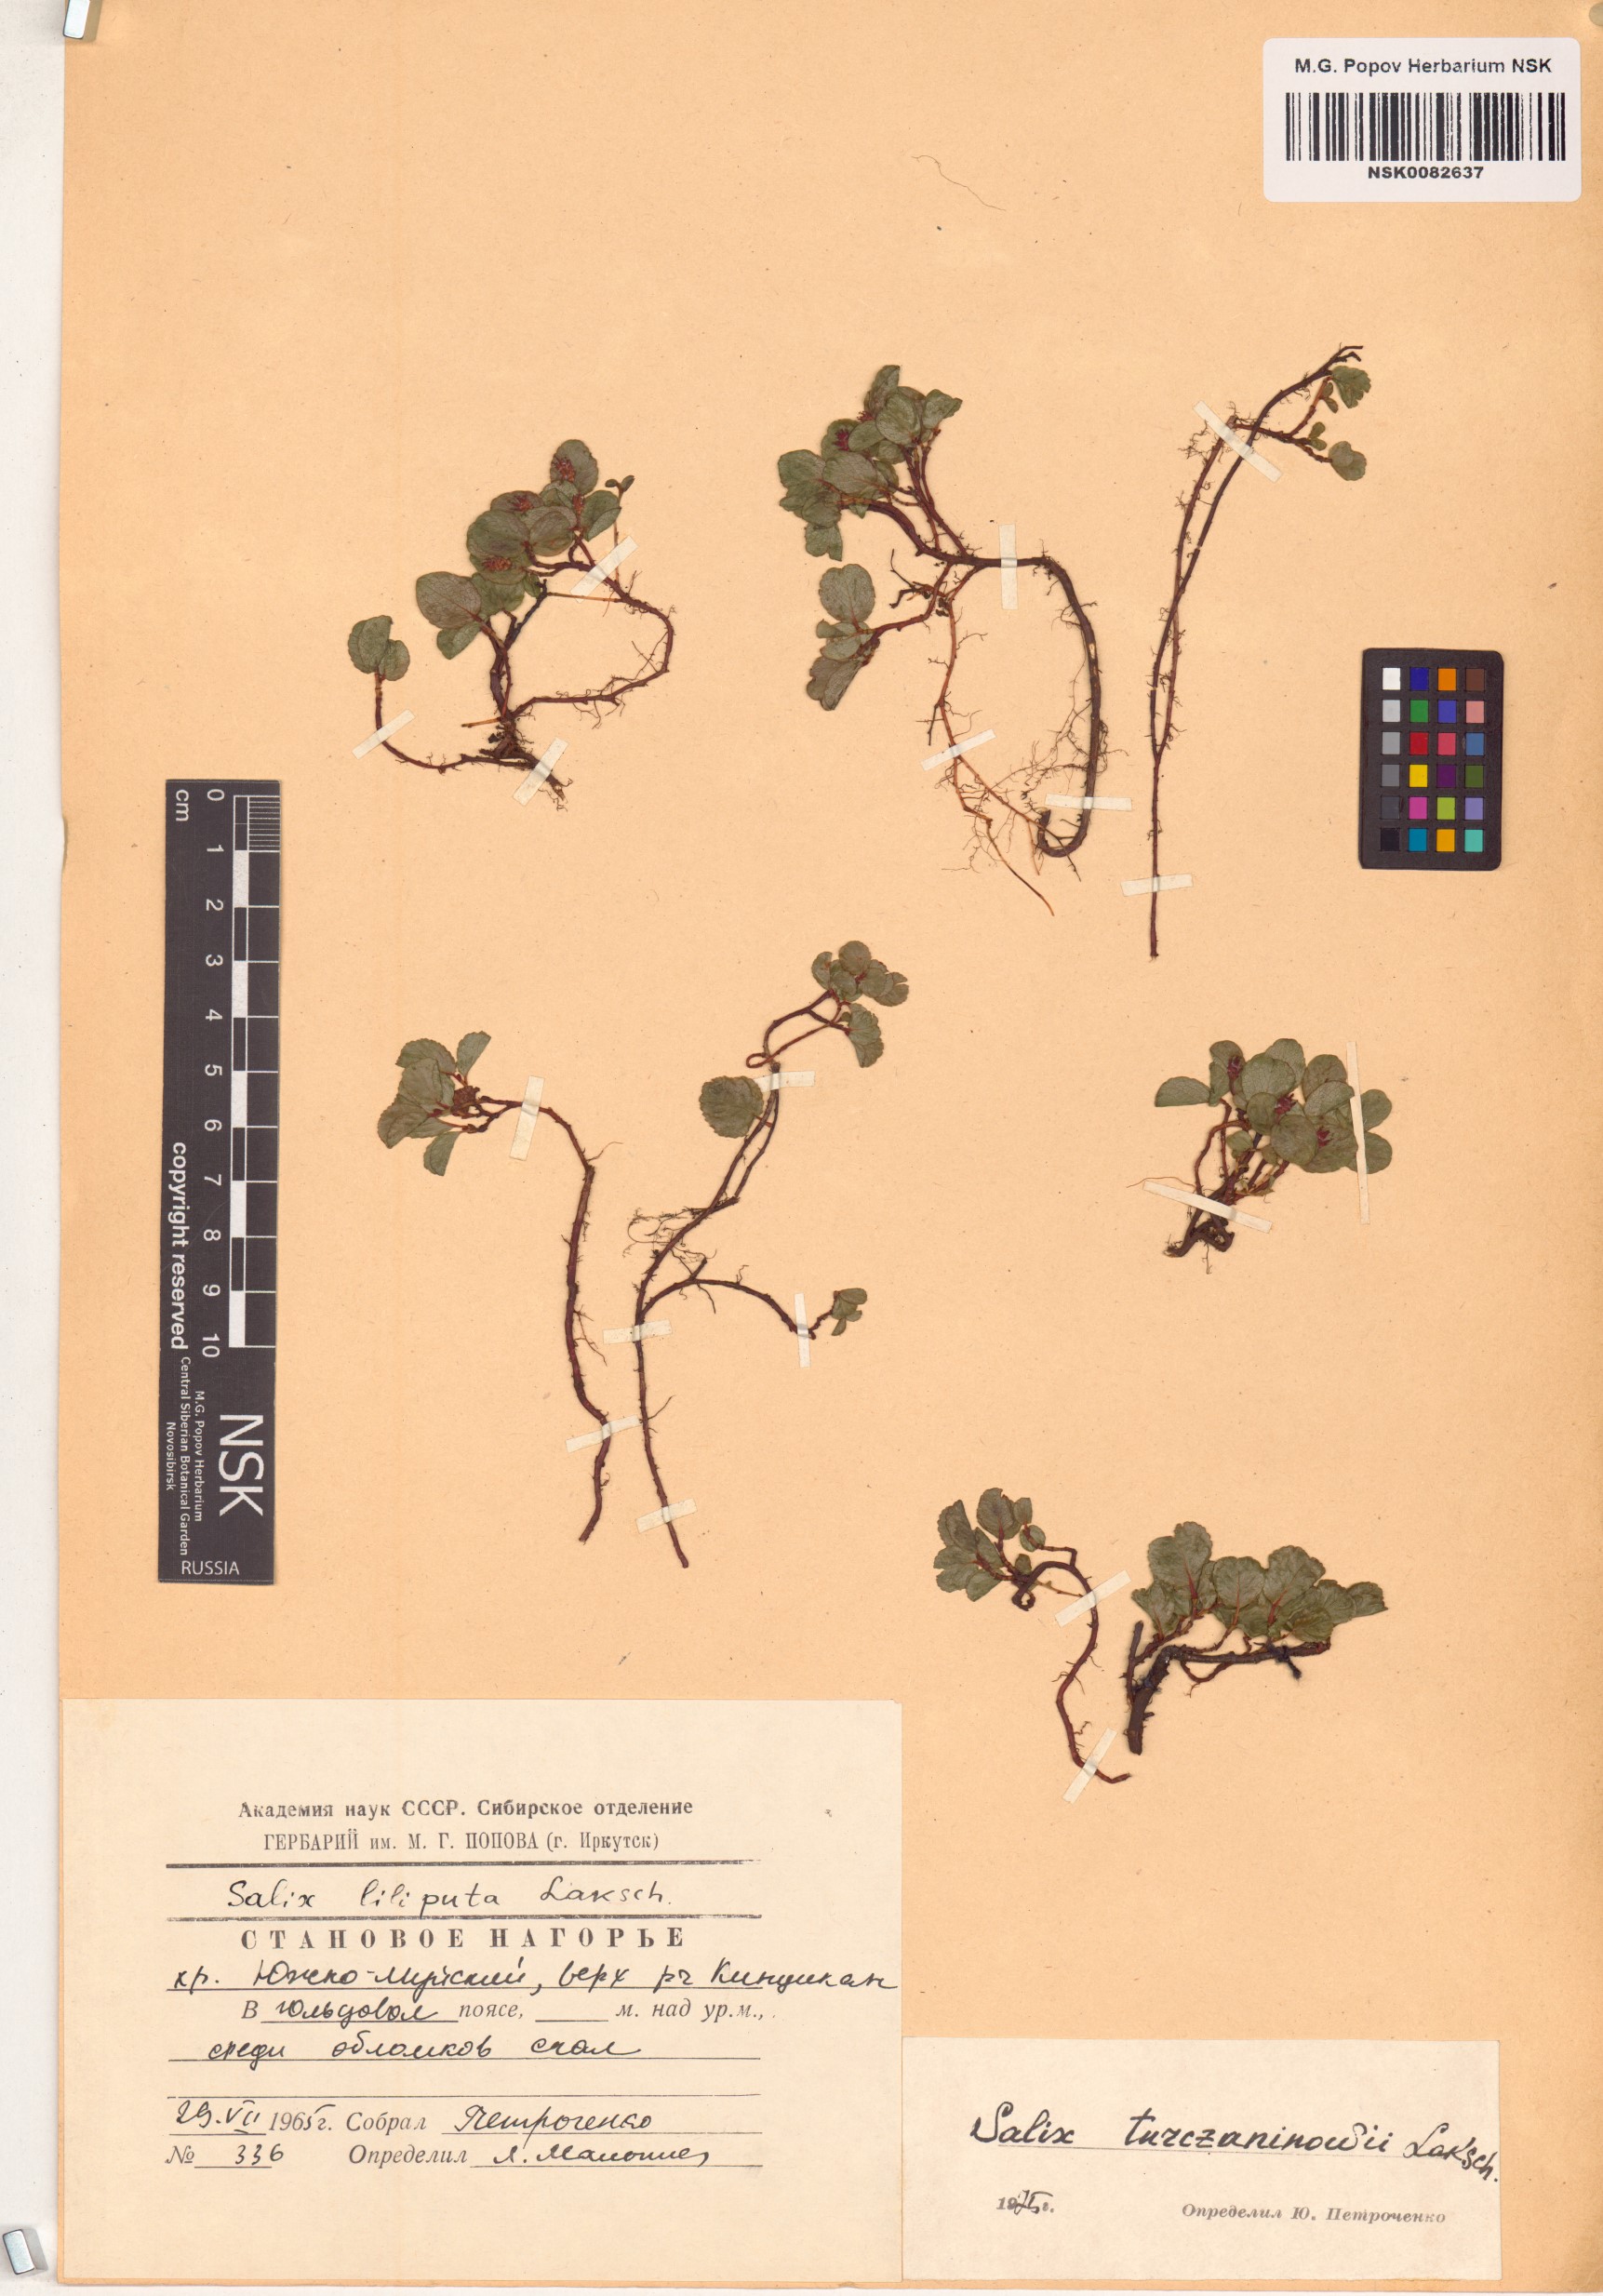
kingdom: Plantae
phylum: Tracheophyta
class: Magnoliopsida
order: Malpighiales
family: Salicaceae
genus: Salix
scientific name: Salix turczaninowii
